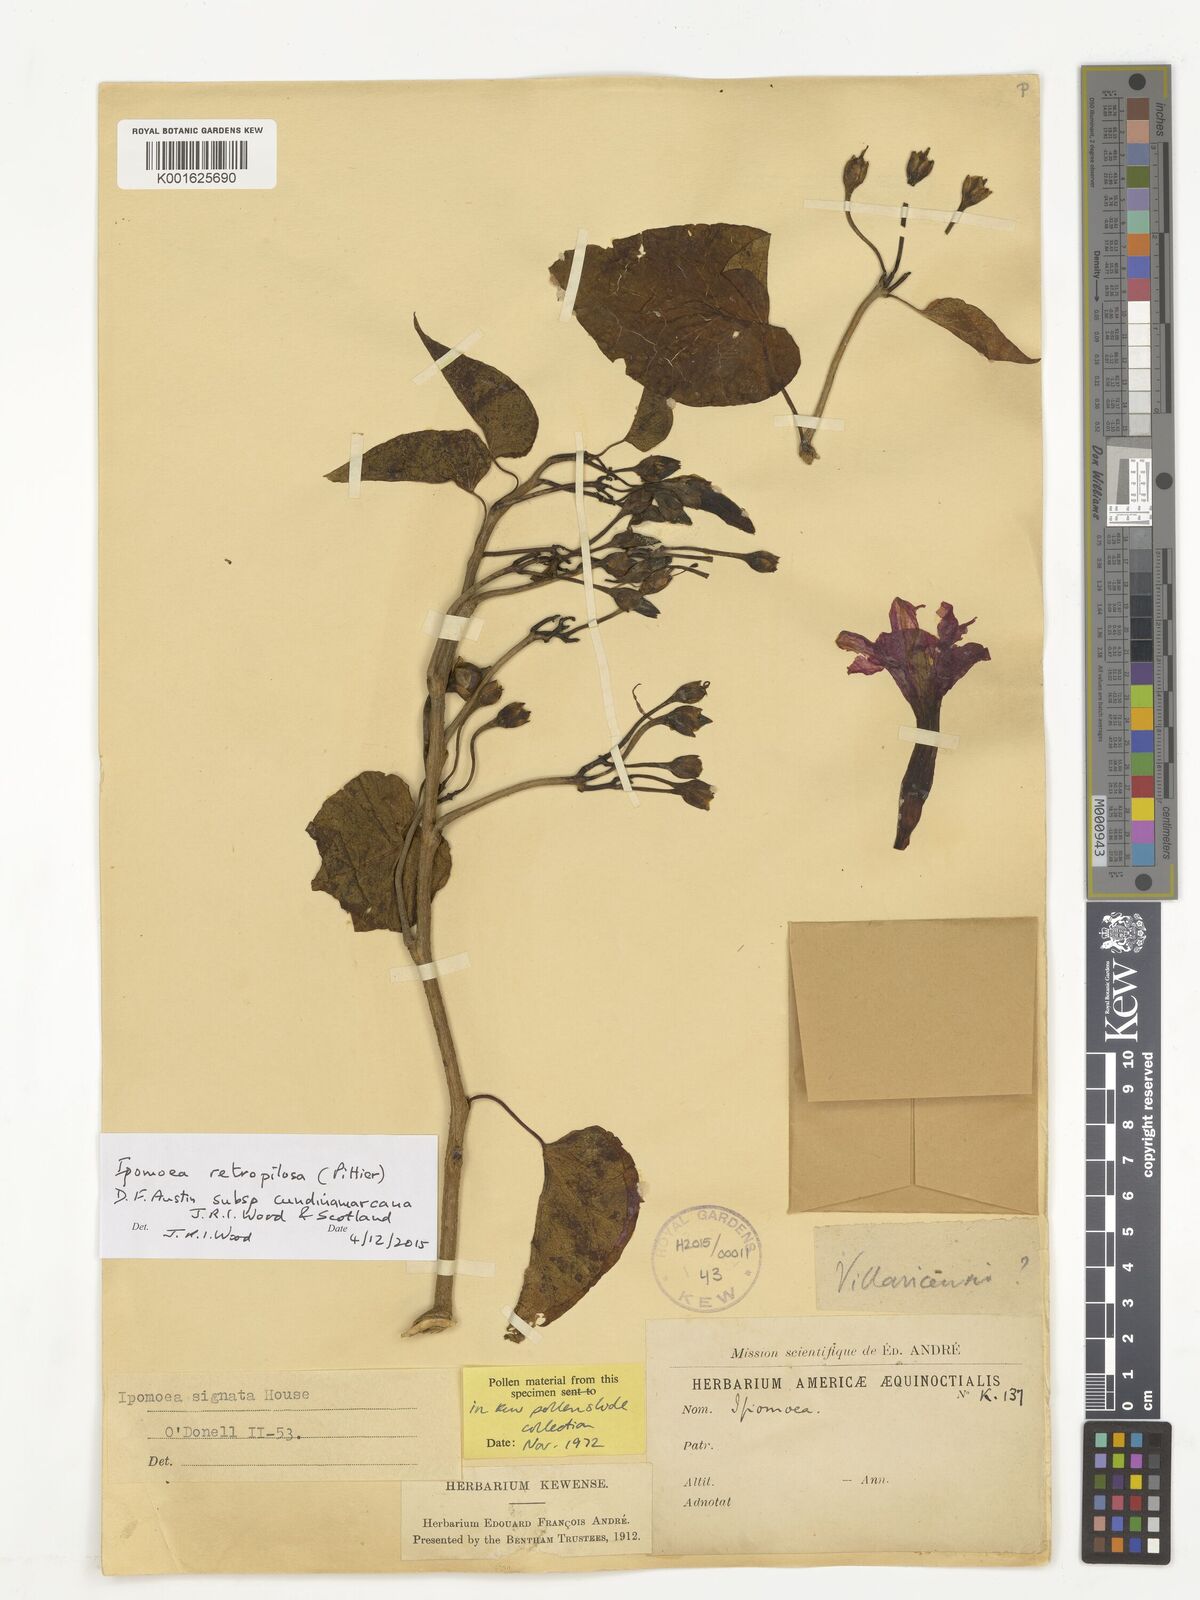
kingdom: Plantae
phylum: Tracheophyta
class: Magnoliopsida
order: Solanales
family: Convolvulaceae
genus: Ipomoea
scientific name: Ipomoea retropilosa
